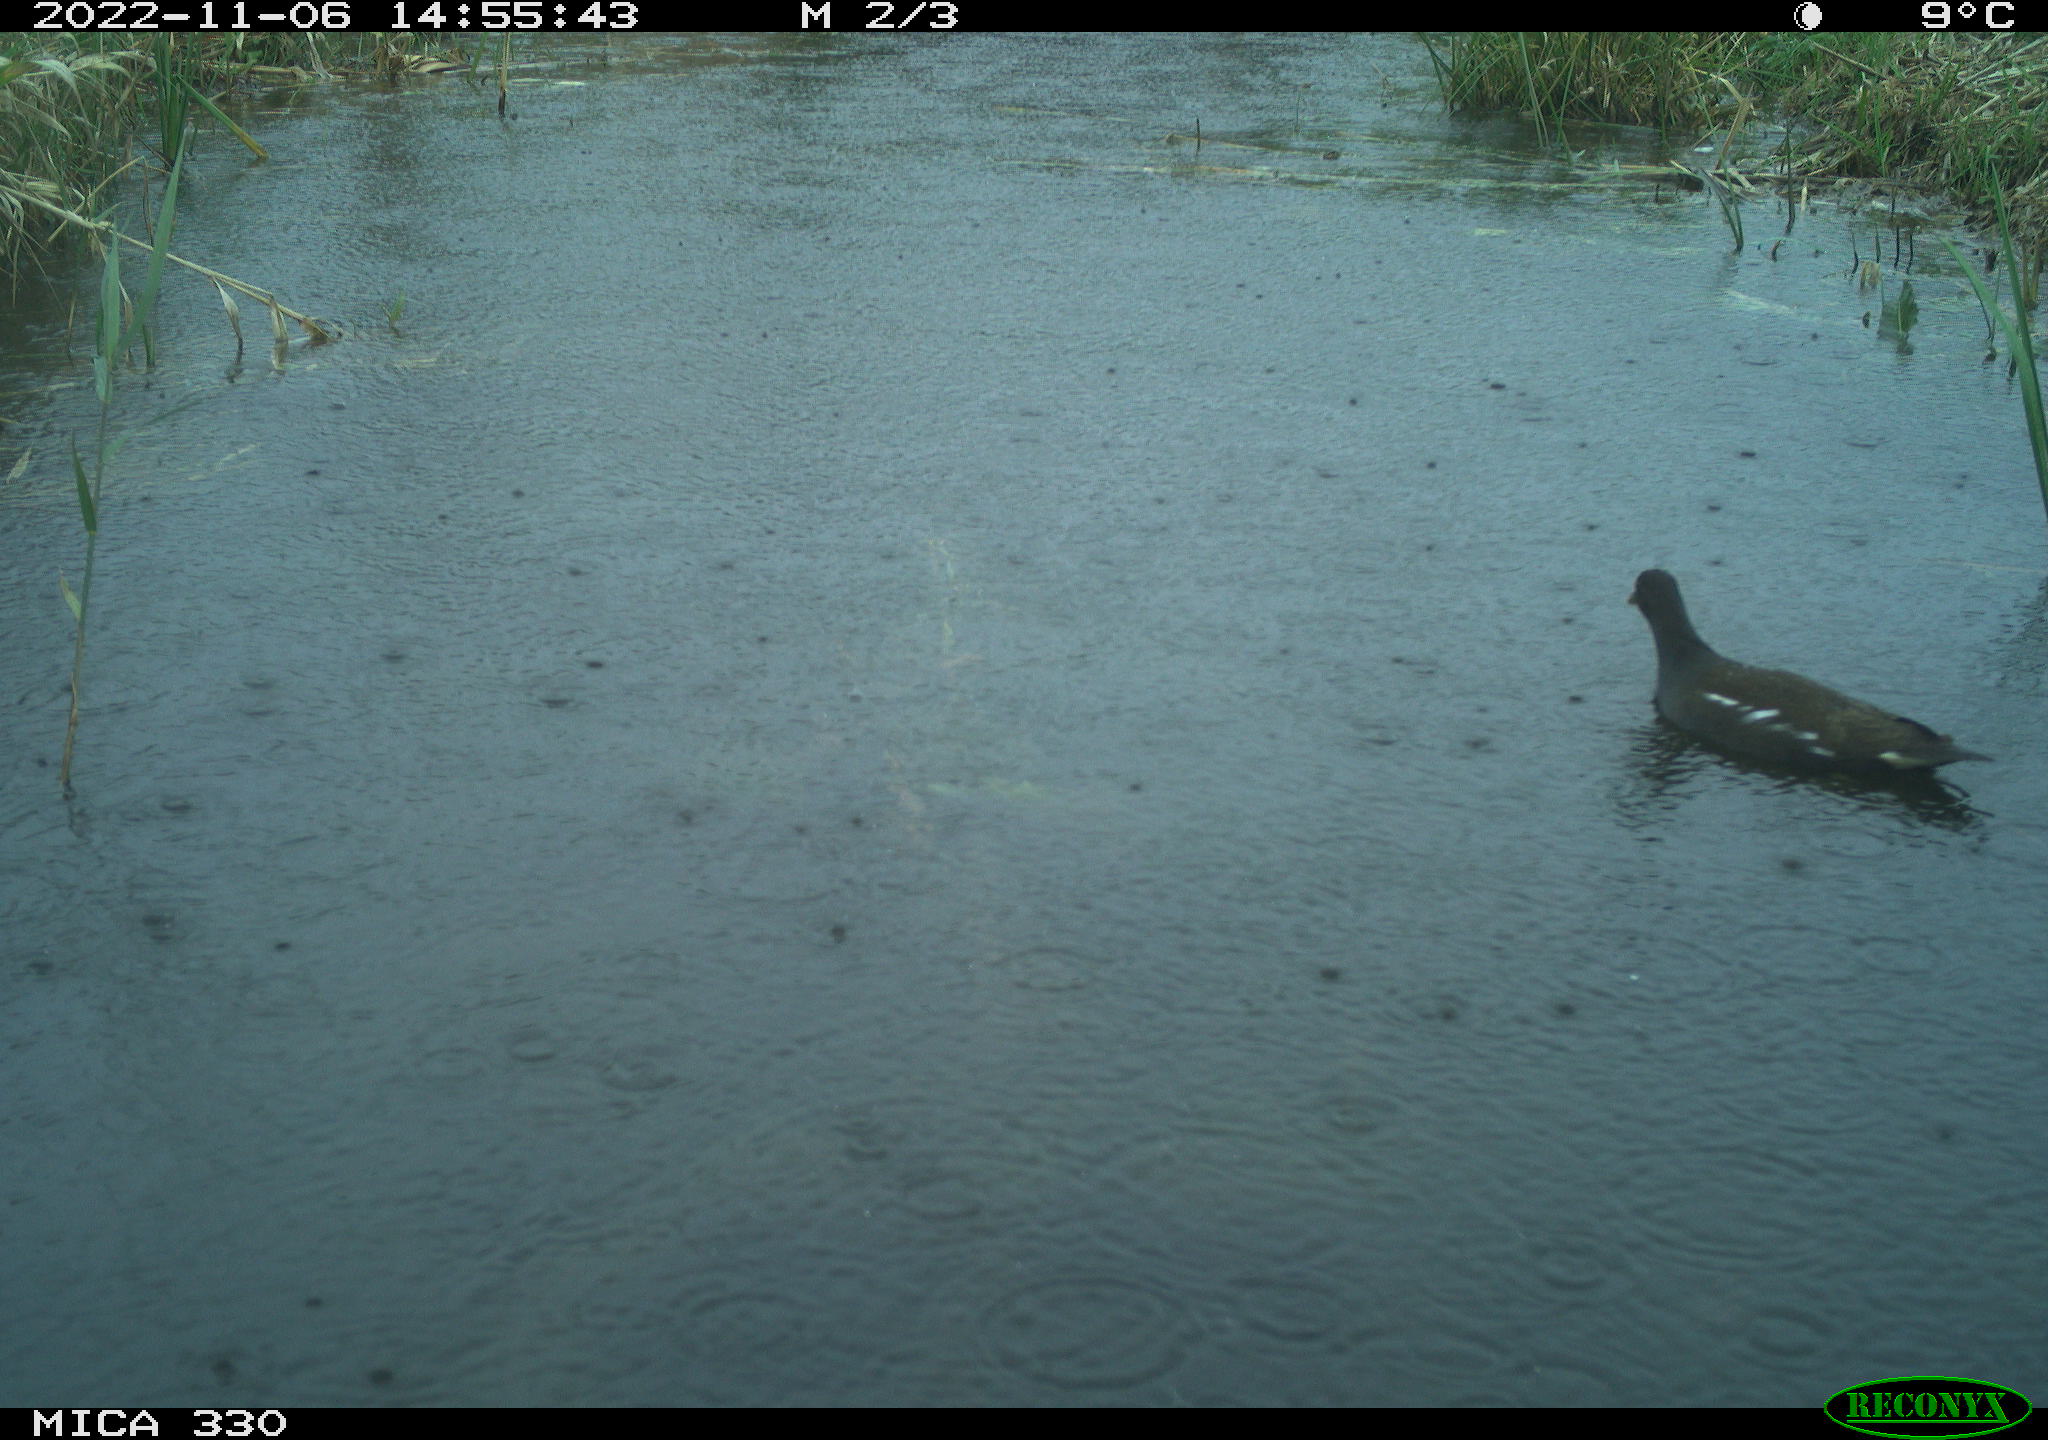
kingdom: Animalia
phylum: Chordata
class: Aves
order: Gruiformes
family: Rallidae
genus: Gallinula
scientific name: Gallinula chloropus
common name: Common moorhen
